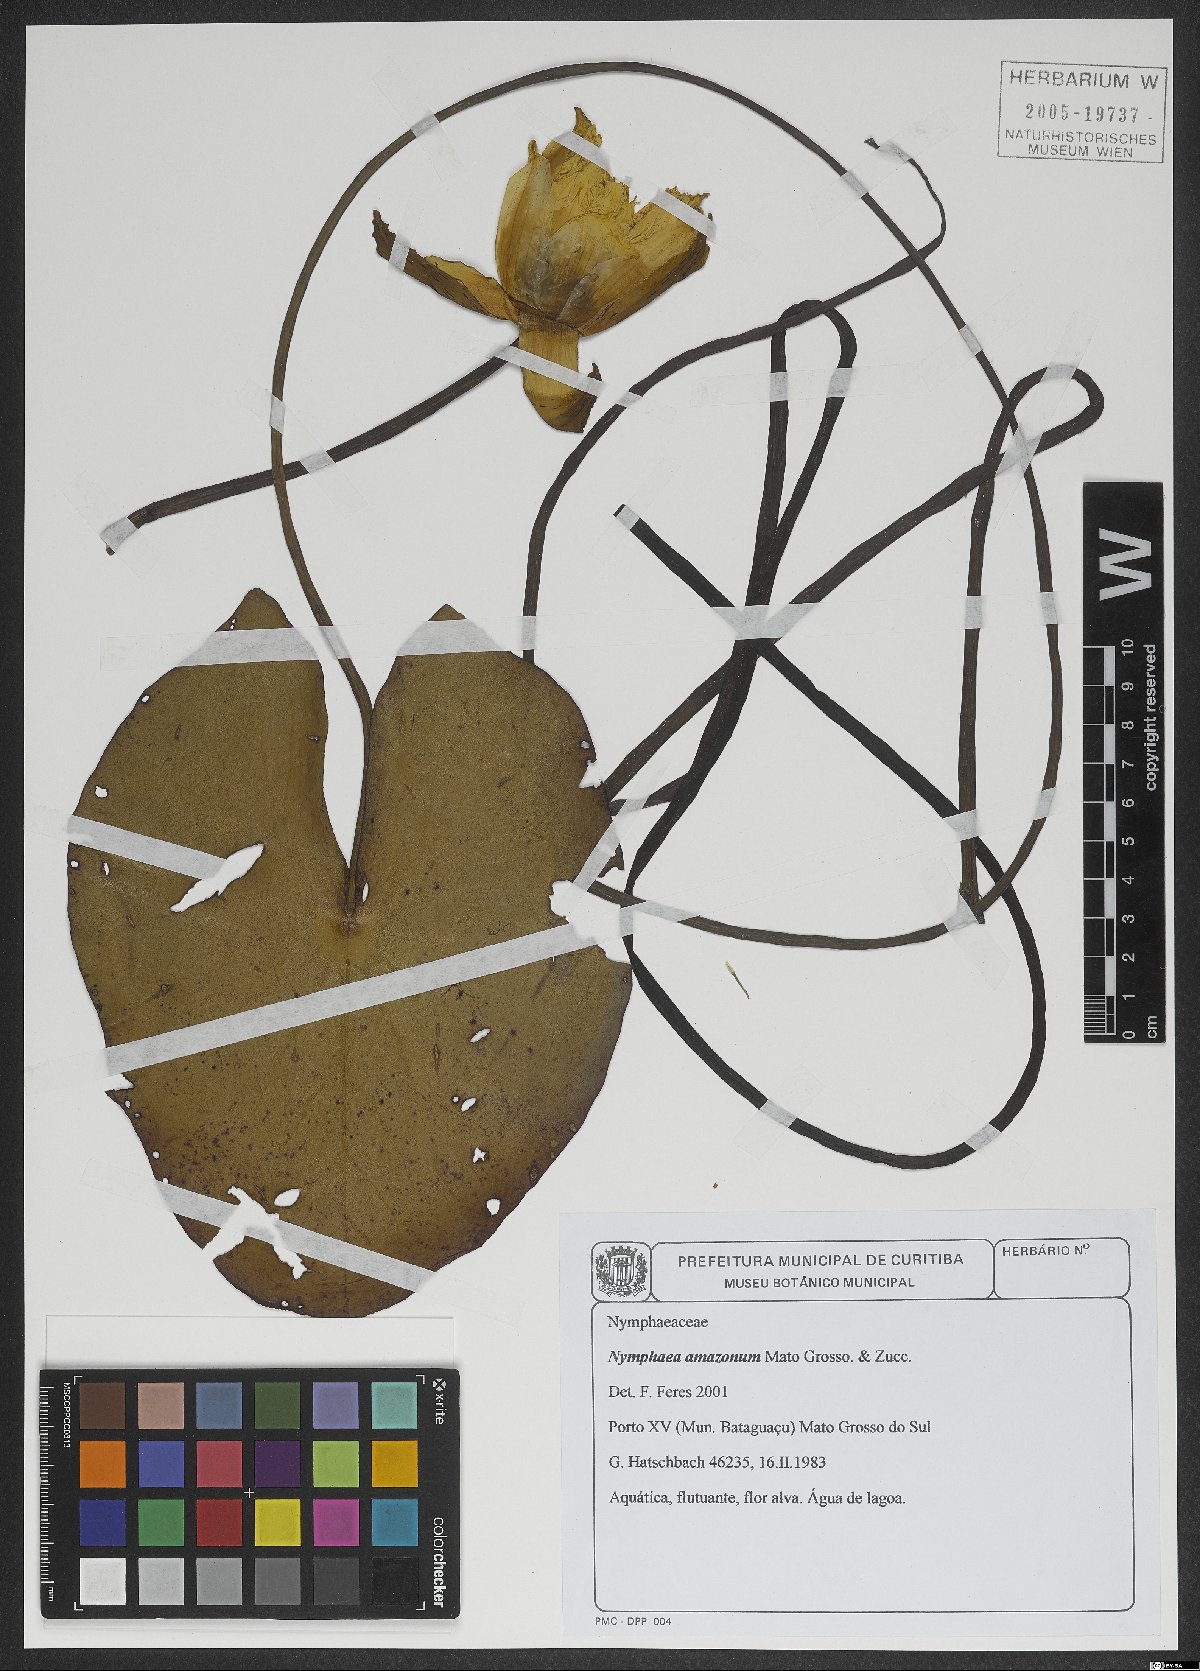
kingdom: Plantae
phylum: Tracheophyta
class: Magnoliopsida
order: Nymphaeales
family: Nymphaeaceae
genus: Nymphaea
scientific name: Nymphaea amazonum
